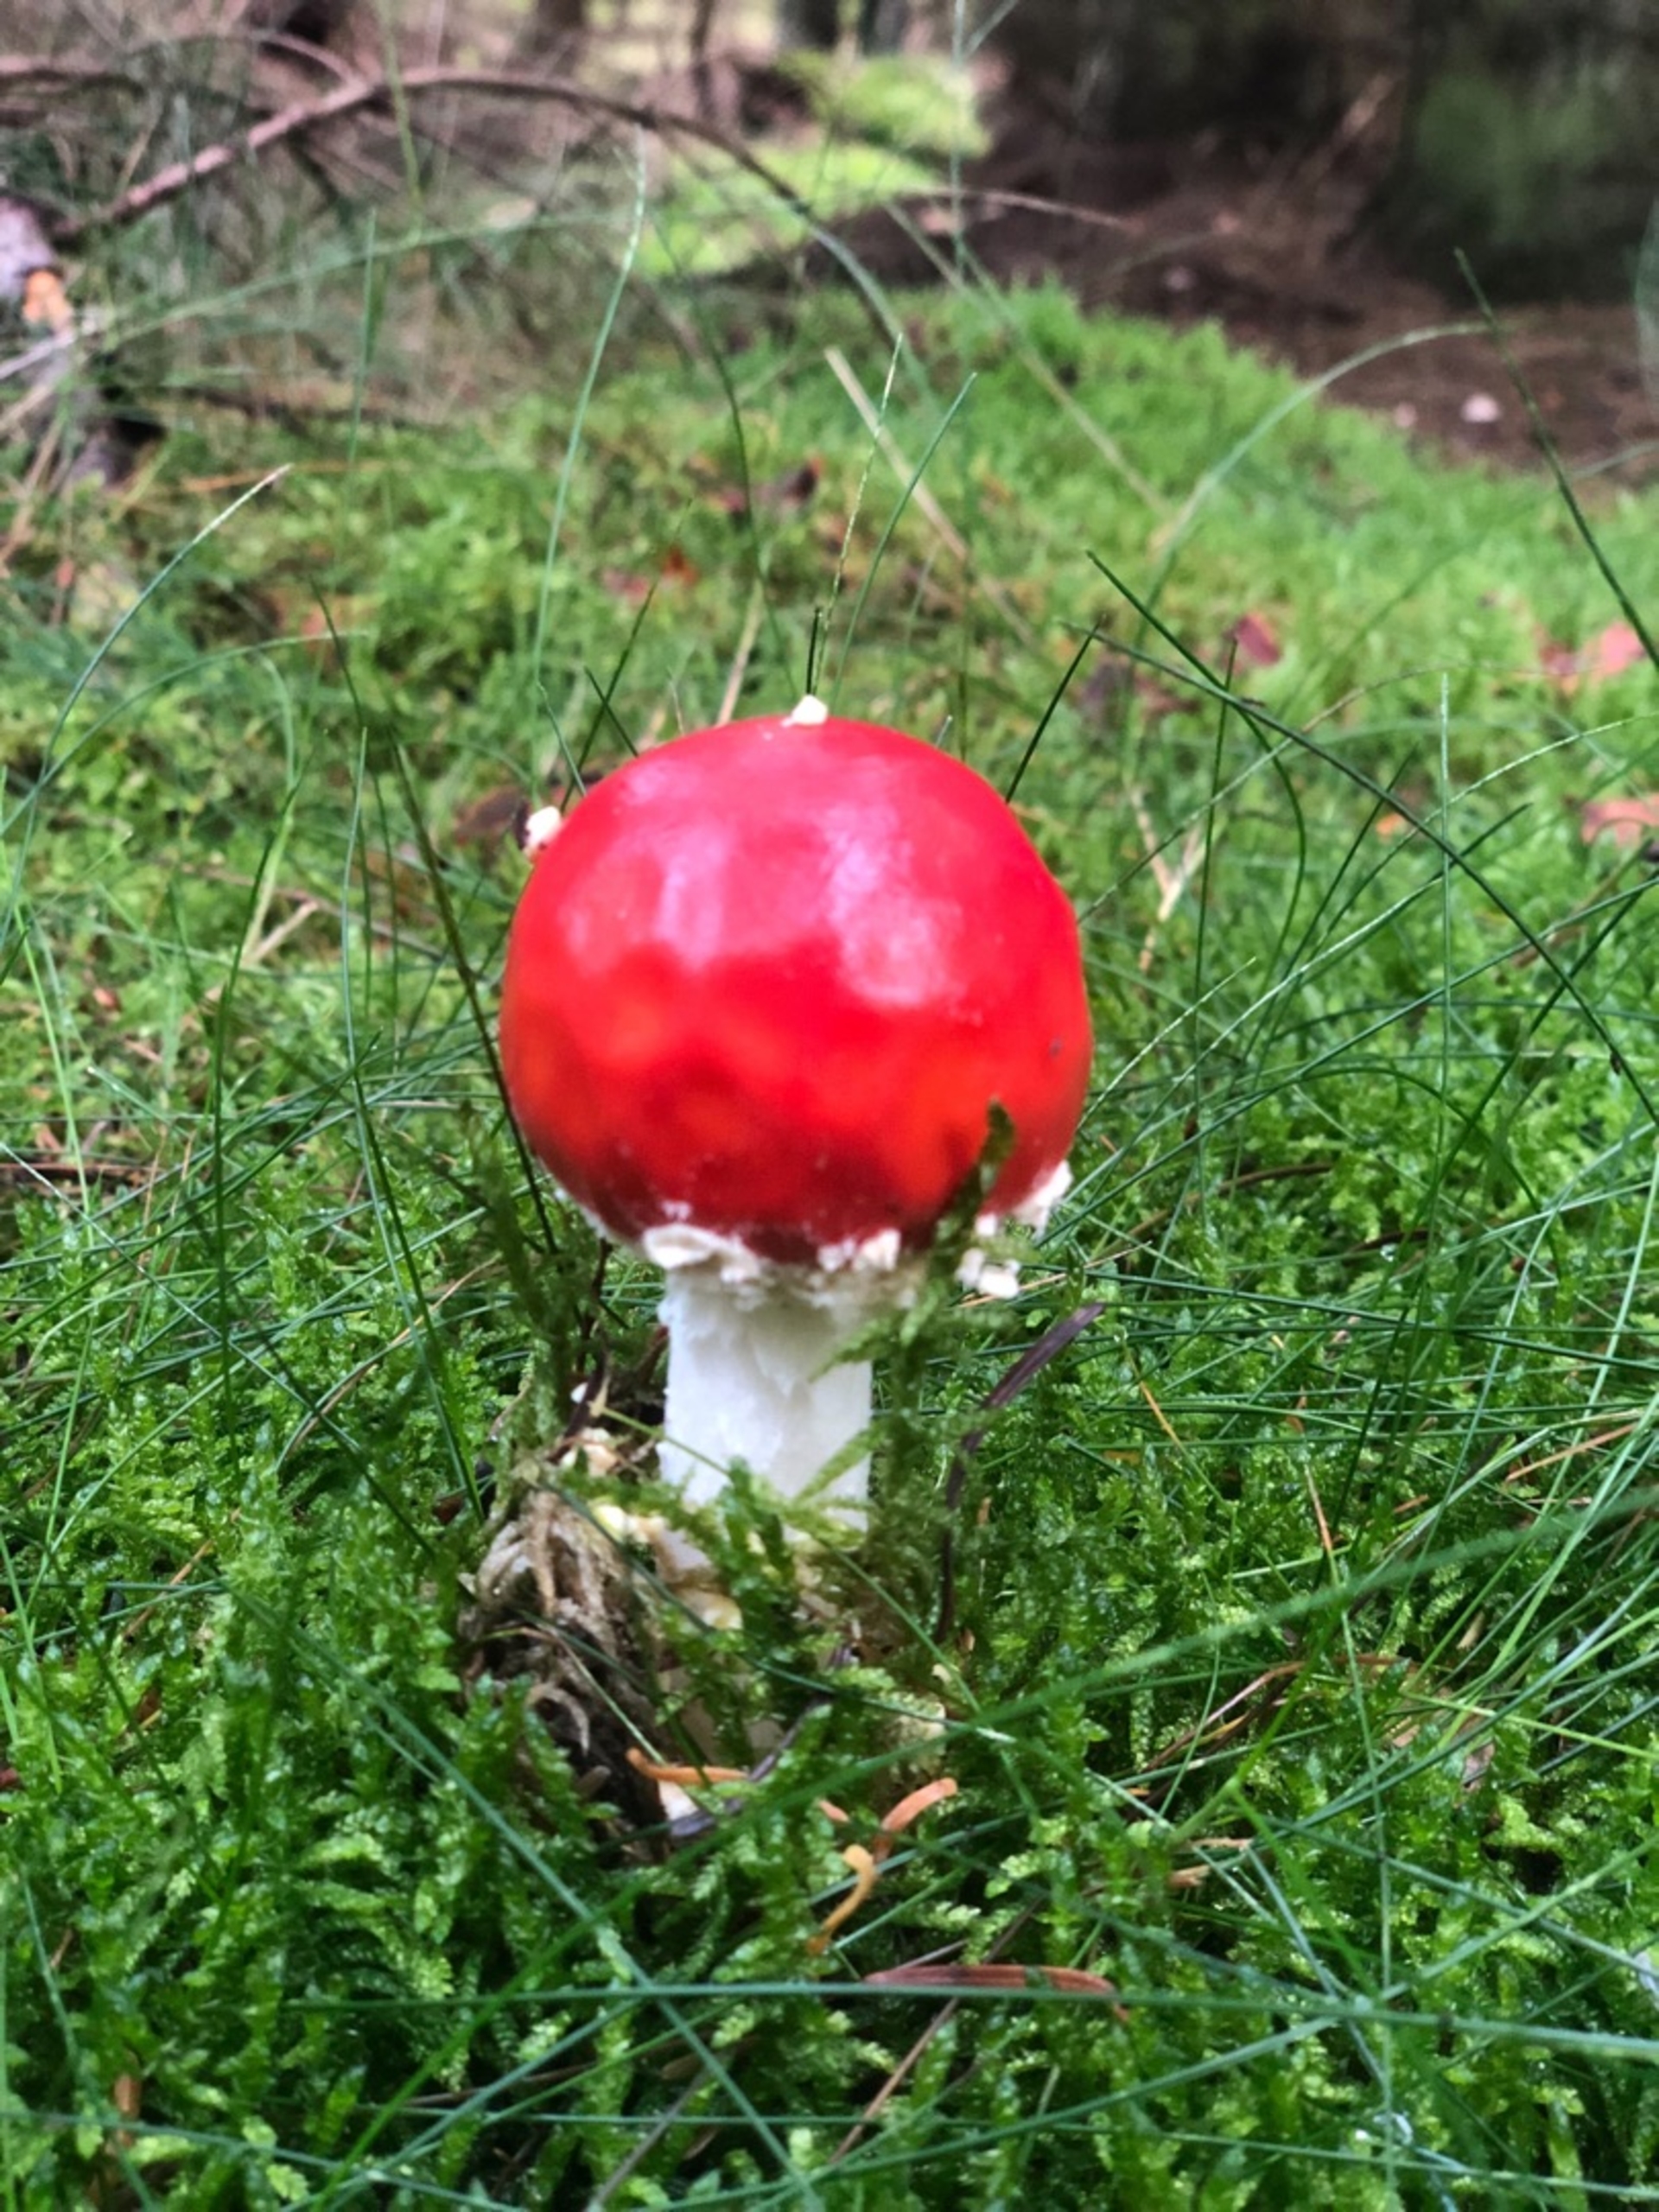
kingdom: Fungi
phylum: Basidiomycota
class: Agaricomycetes
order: Agaricales
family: Amanitaceae
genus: Amanita
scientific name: Amanita muscaria
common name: Rød fluesvamp
